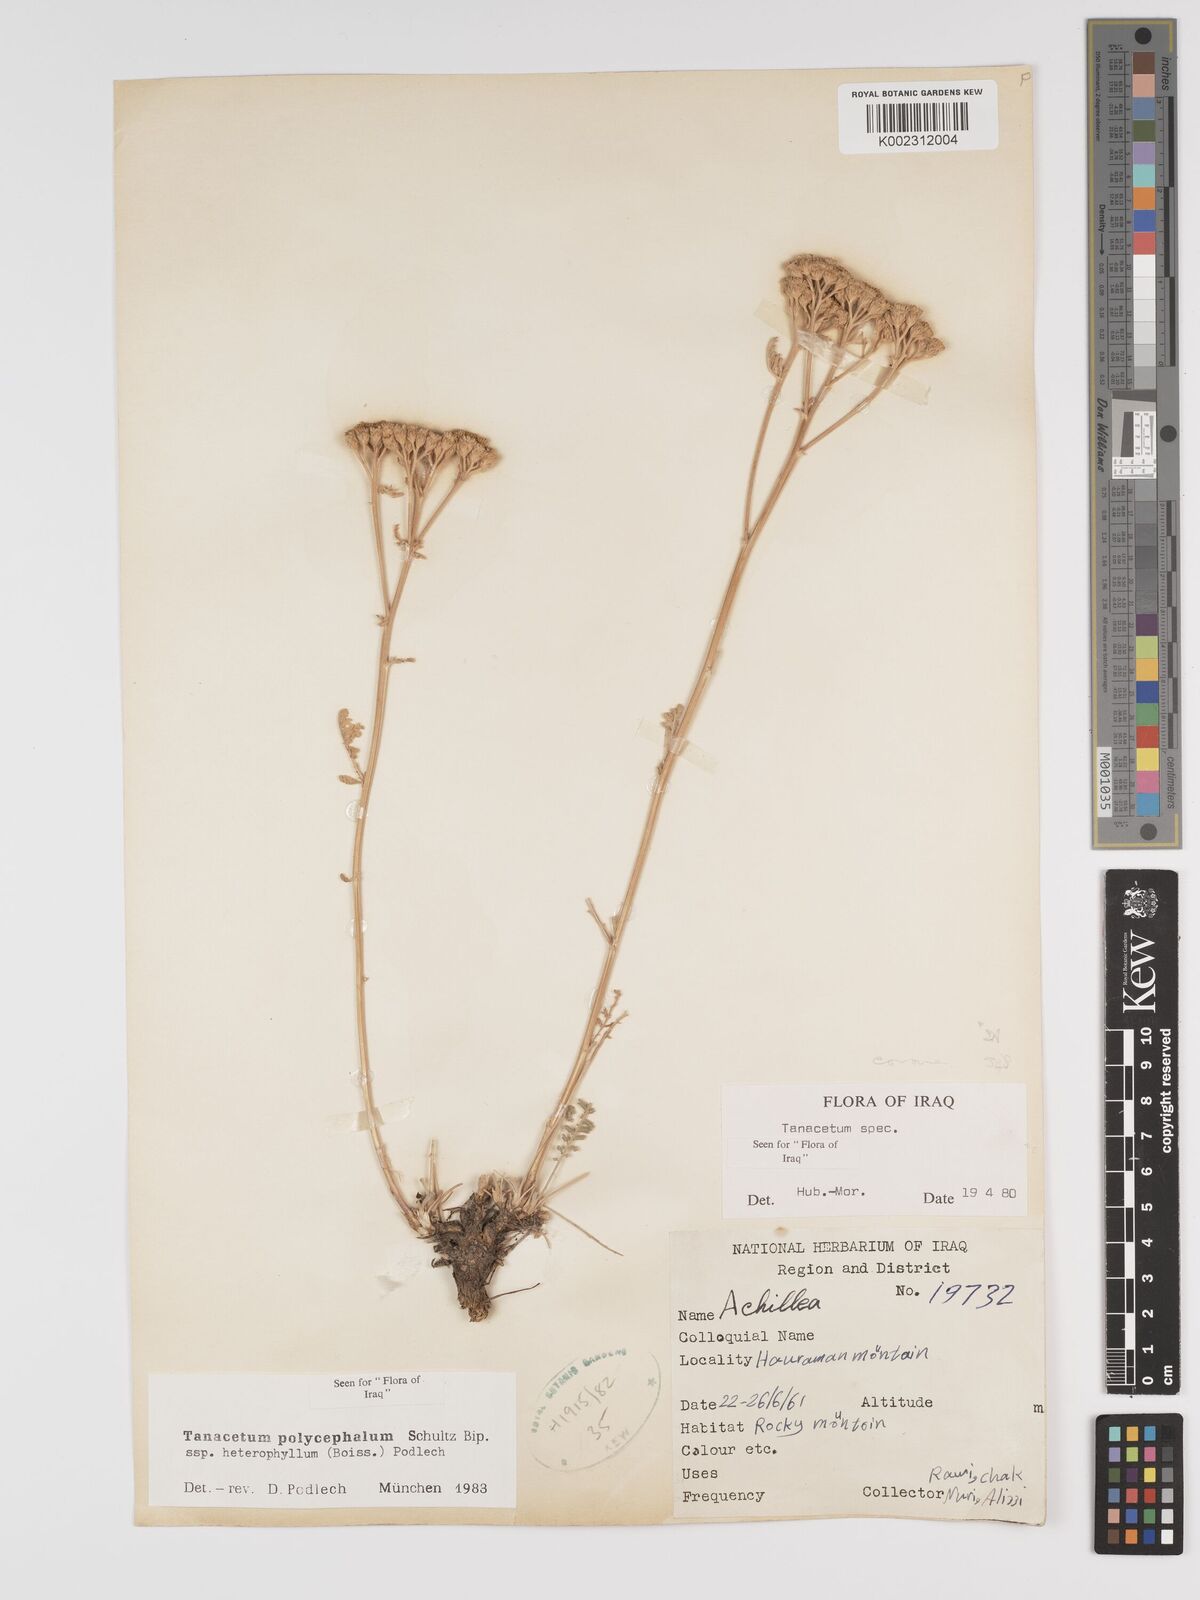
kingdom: Plantae
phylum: Tracheophyta
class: Magnoliopsida
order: Asterales
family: Asteraceae
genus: Tanacetum
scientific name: Tanacetum polycephalum
